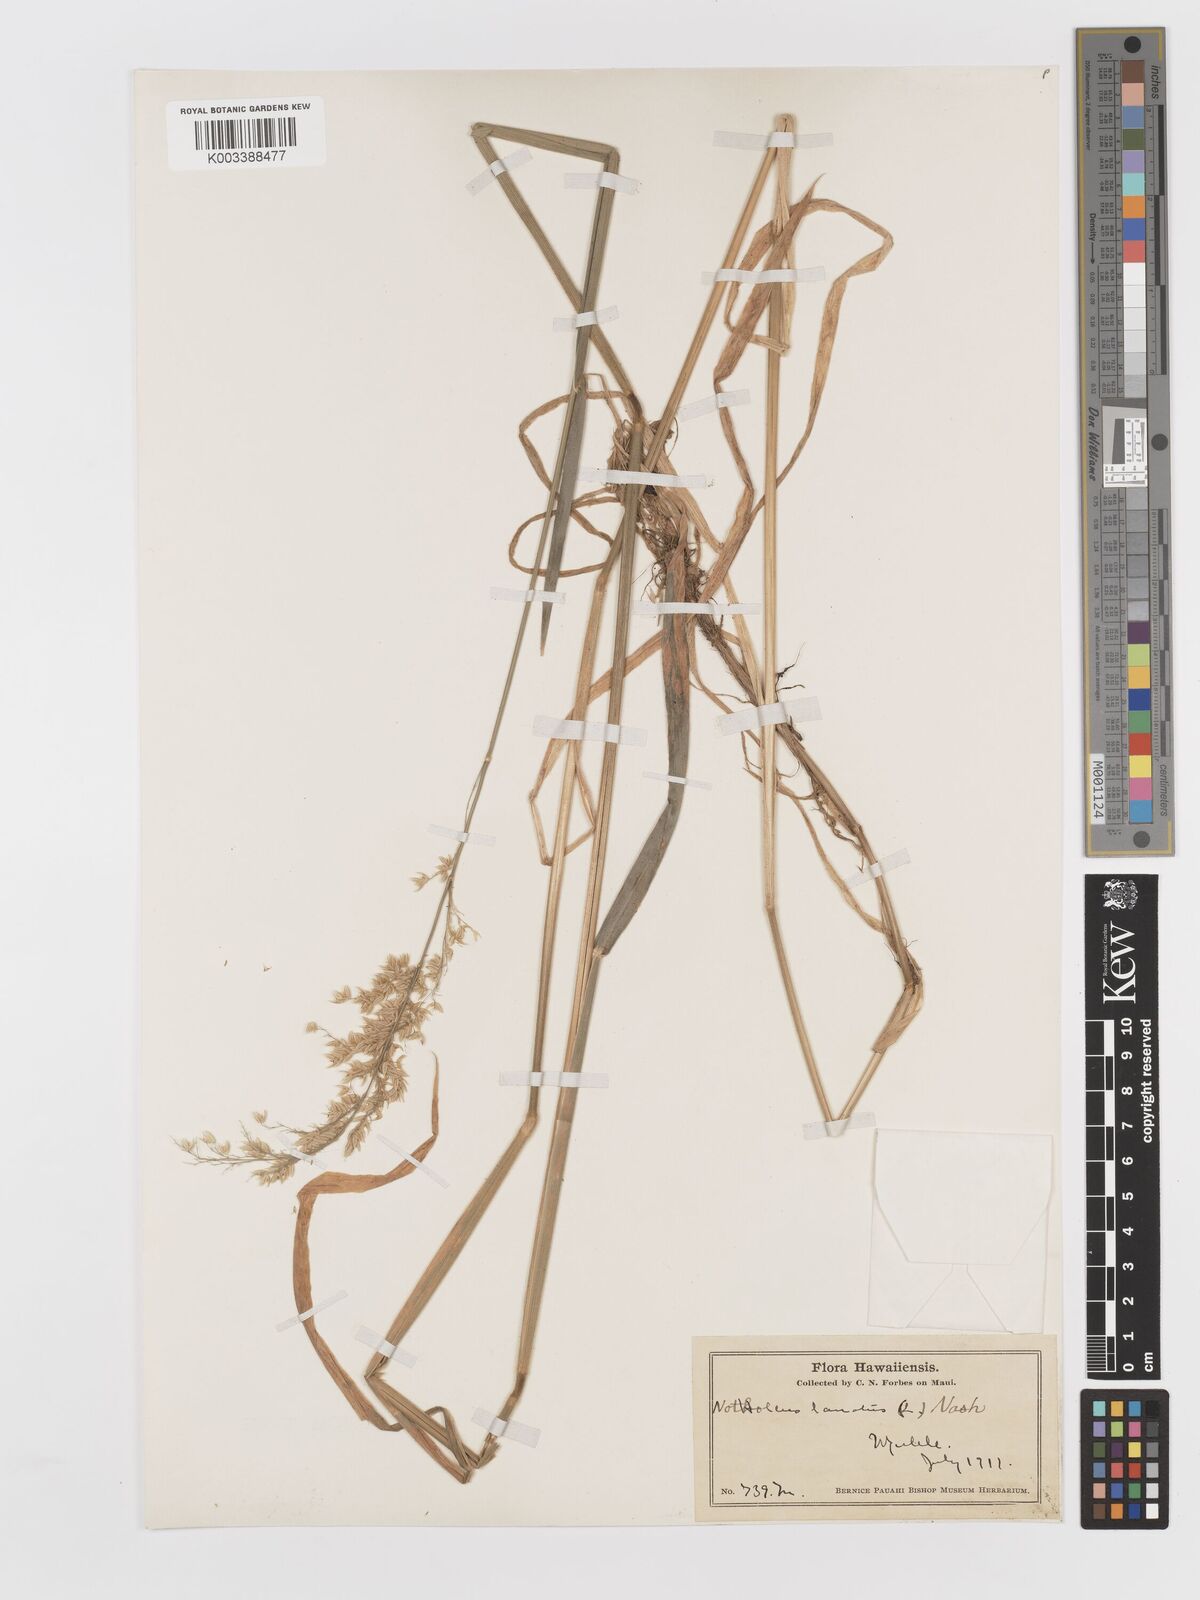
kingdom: Plantae
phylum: Tracheophyta
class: Liliopsida
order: Poales
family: Poaceae
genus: Holcus
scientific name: Holcus lanatus
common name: Yorkshire-fog
